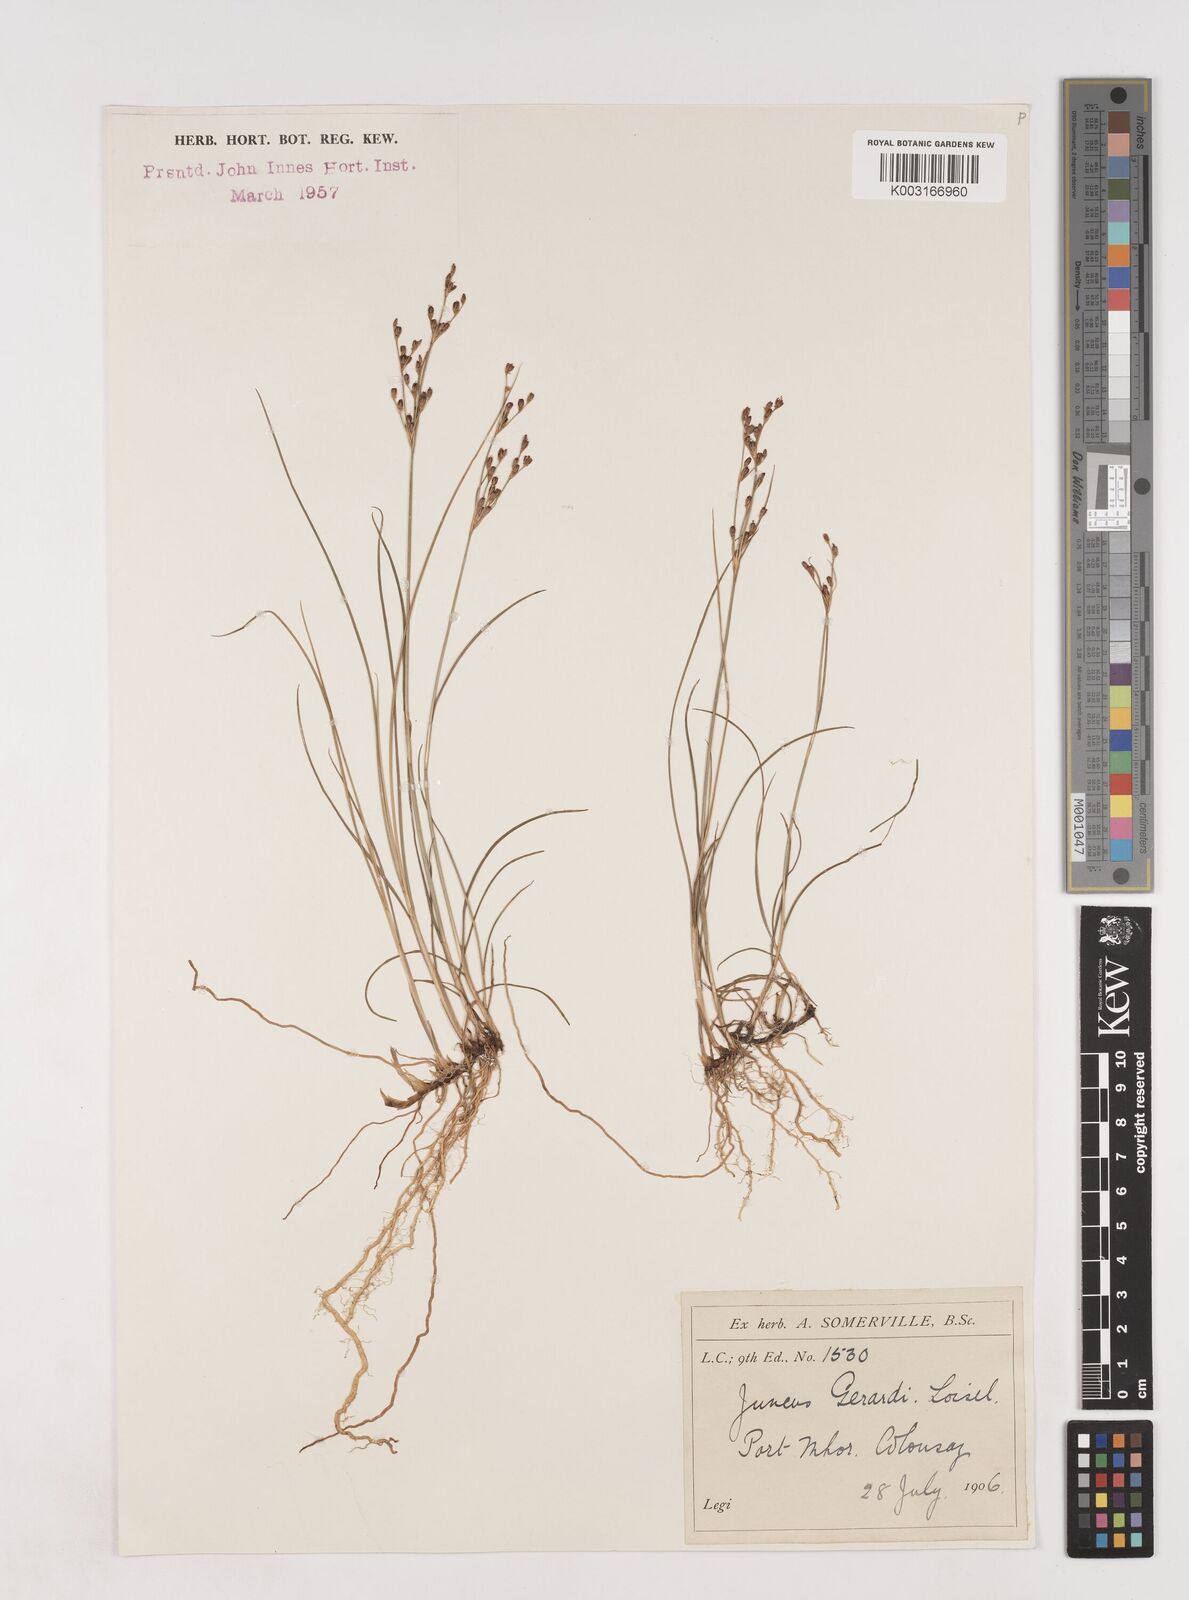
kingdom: Plantae
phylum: Tracheophyta
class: Liliopsida
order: Poales
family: Juncaceae
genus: Juncus
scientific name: Juncus gerardi
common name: Saltmarsh rush
